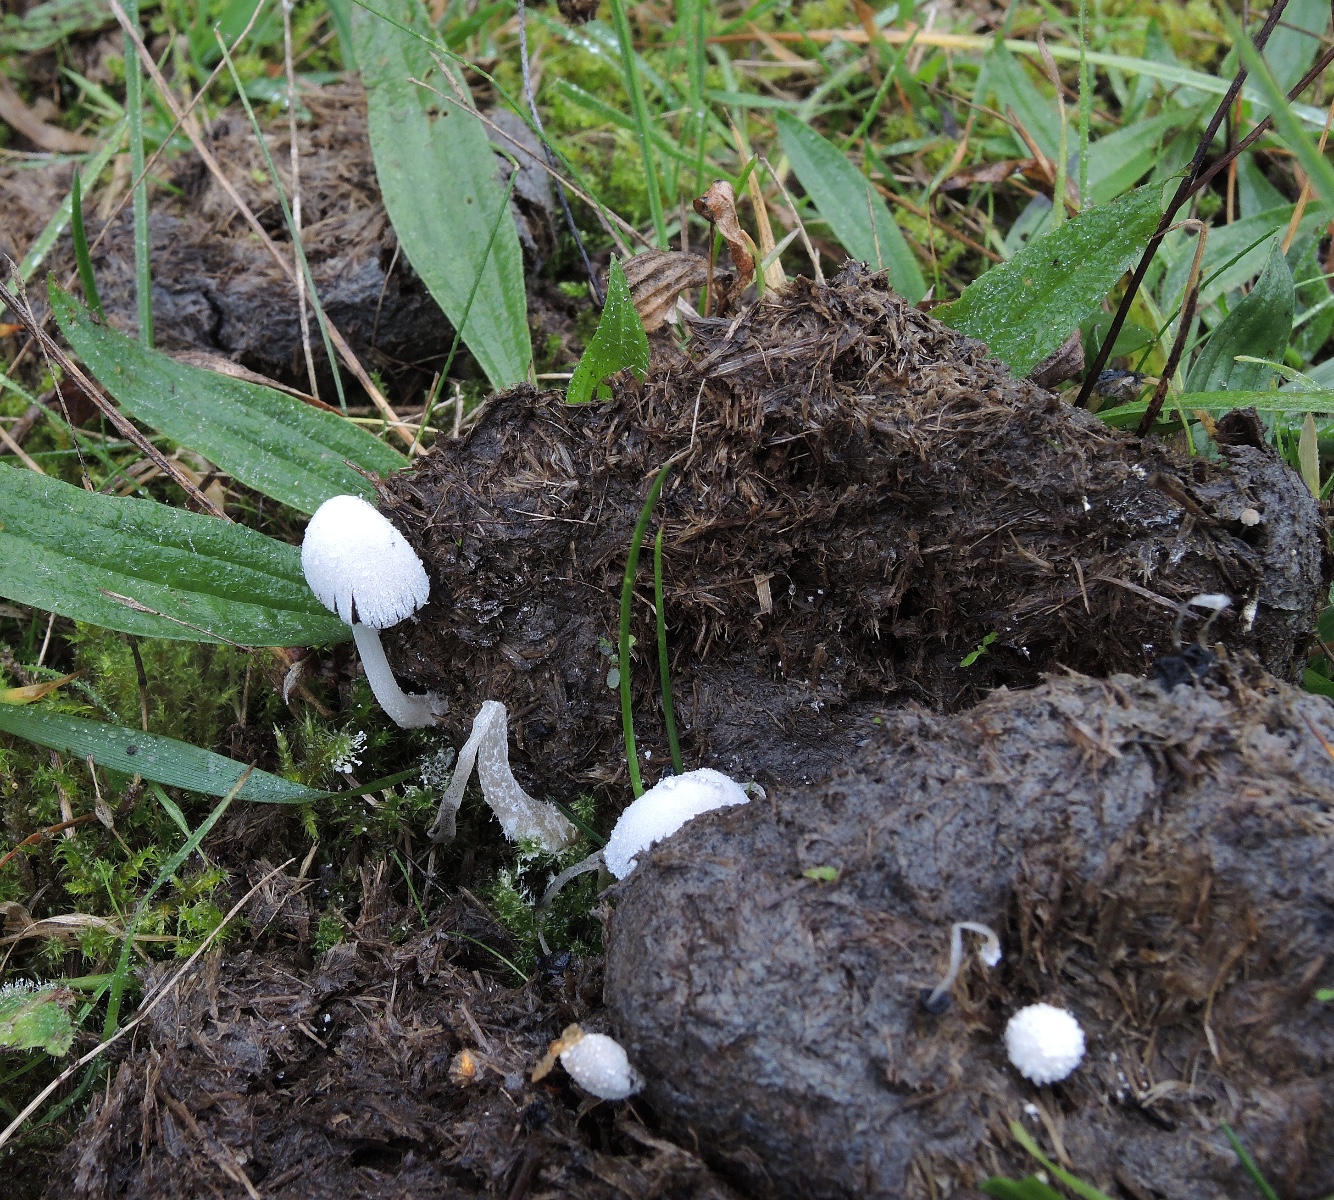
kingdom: Fungi
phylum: Basidiomycota
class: Agaricomycetes
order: Agaricales
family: Psathyrellaceae
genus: Coprinopsis
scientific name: Coprinopsis nivea
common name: snehvid blækhat
